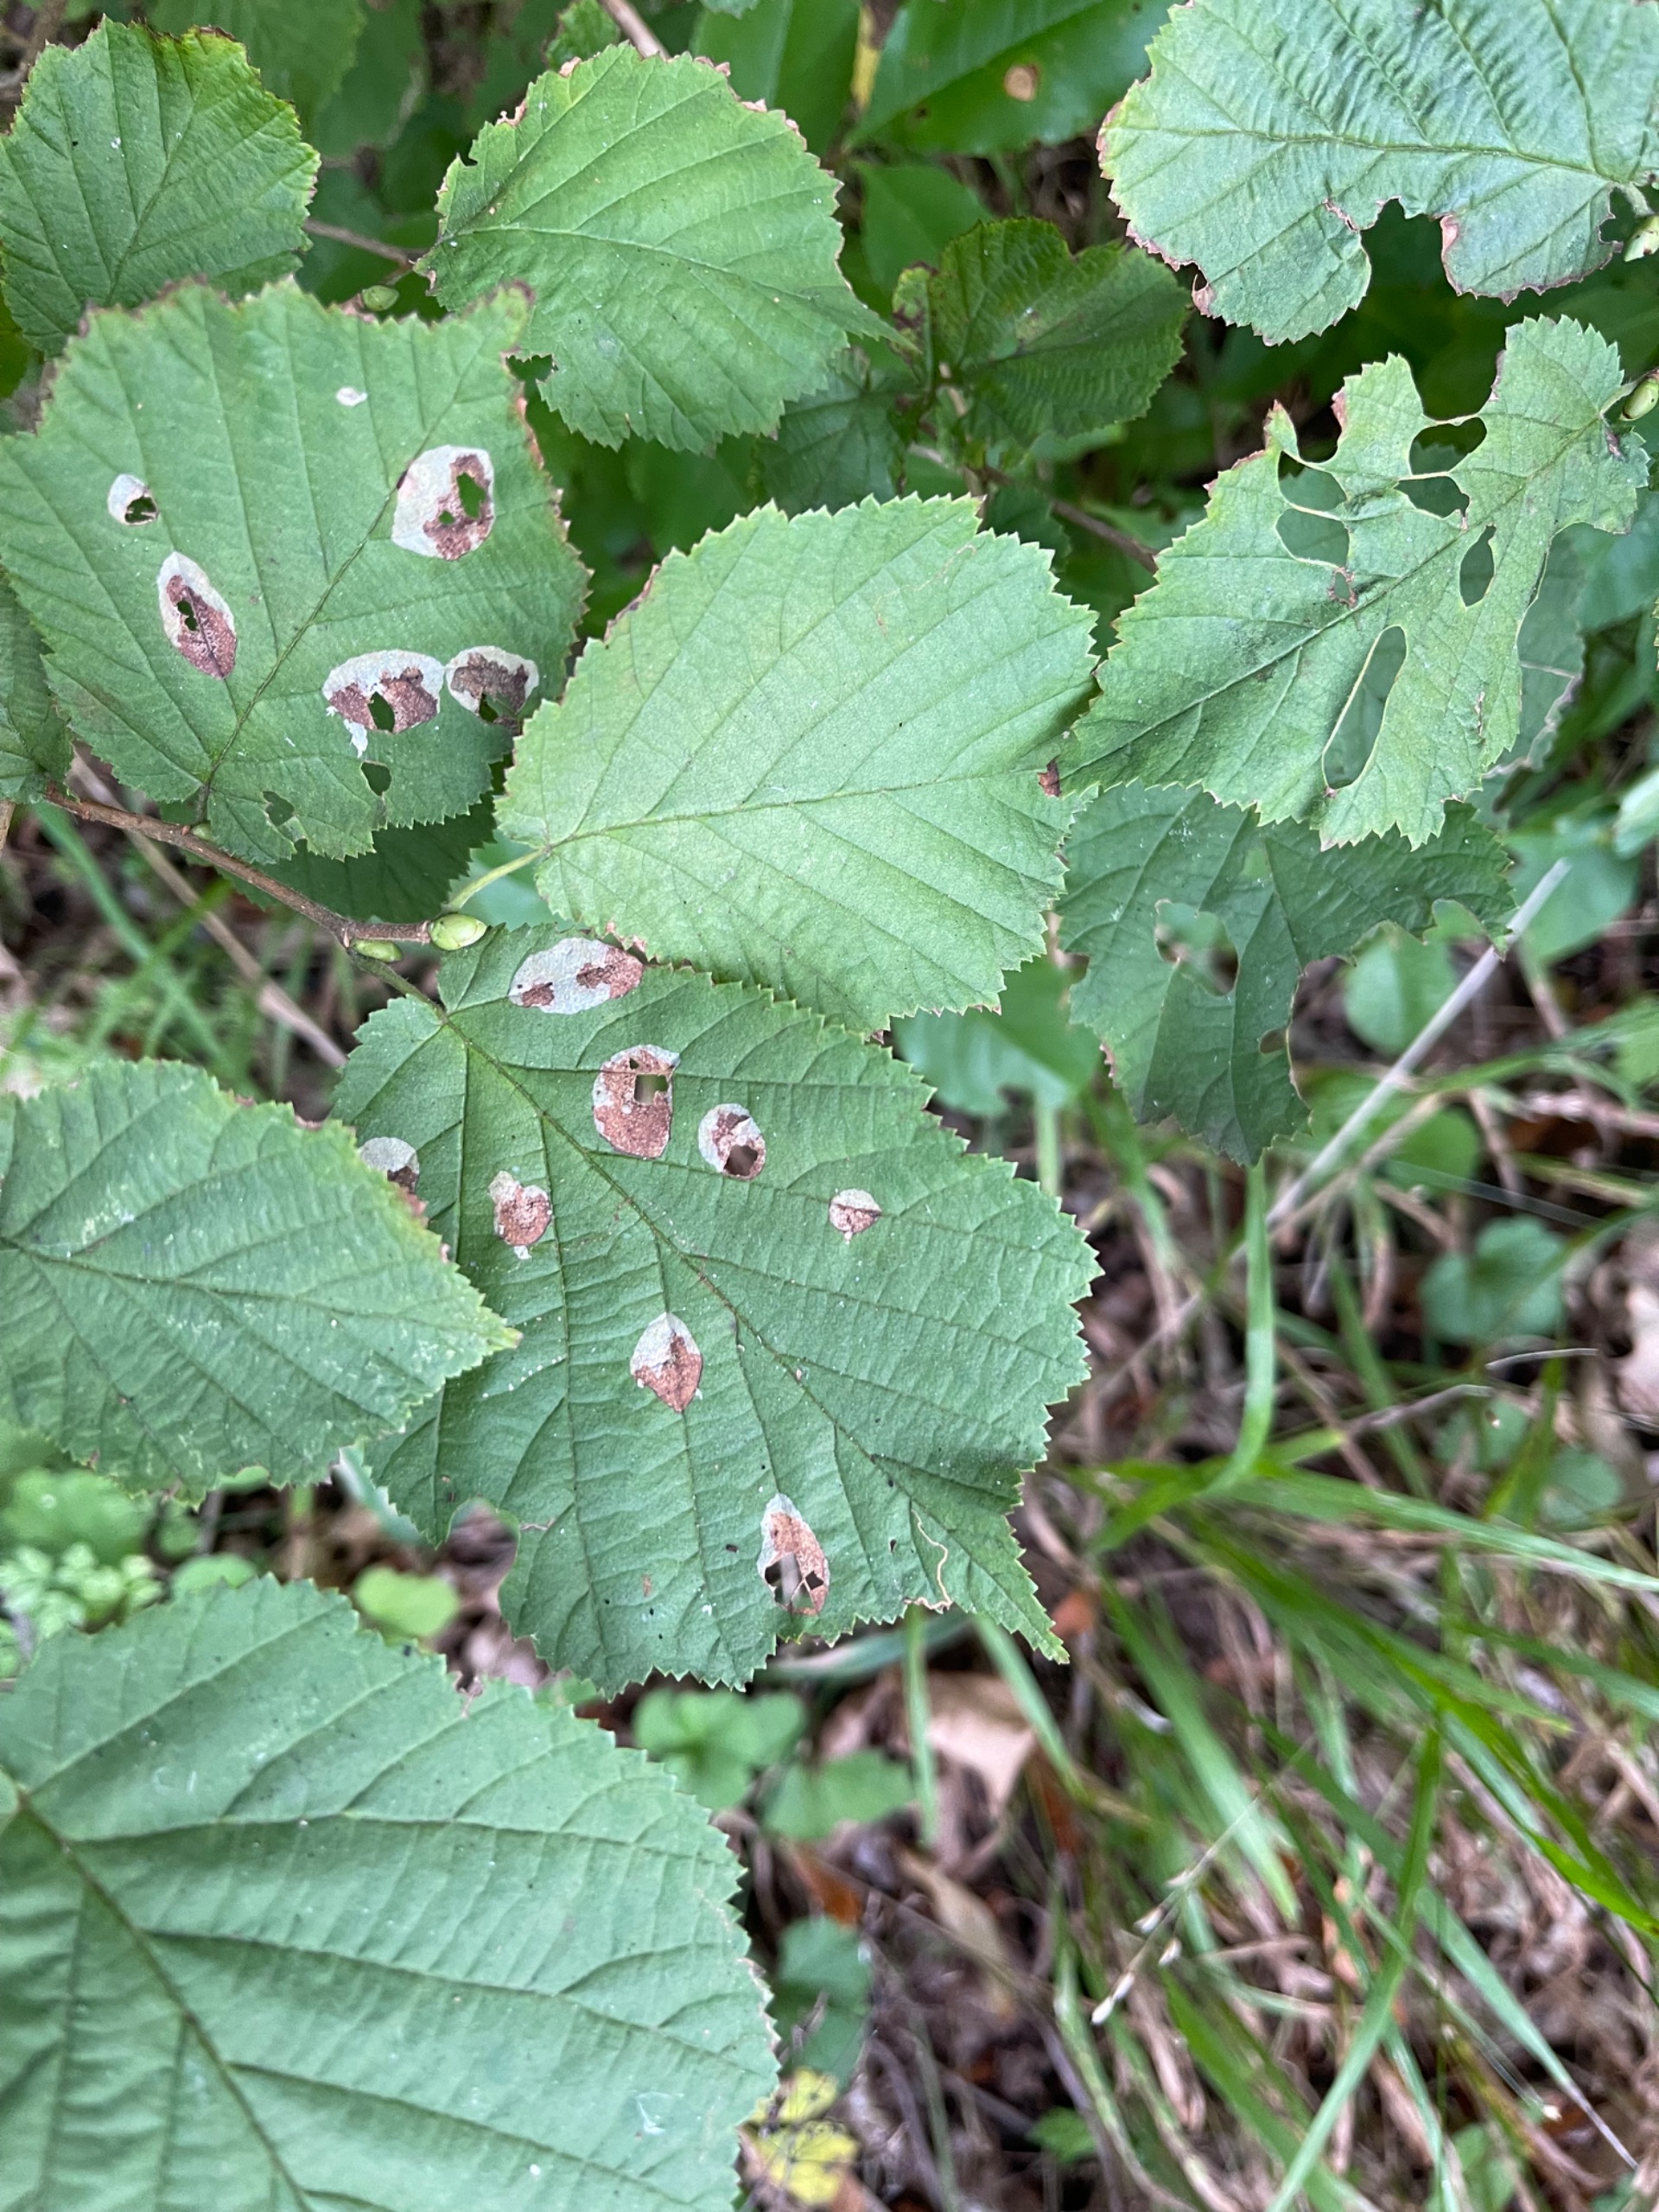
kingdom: Animalia
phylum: Arthropoda
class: Insecta
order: Lepidoptera
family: Gracillariidae
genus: Phyllonorycter
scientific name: Phyllonorycter coryli
